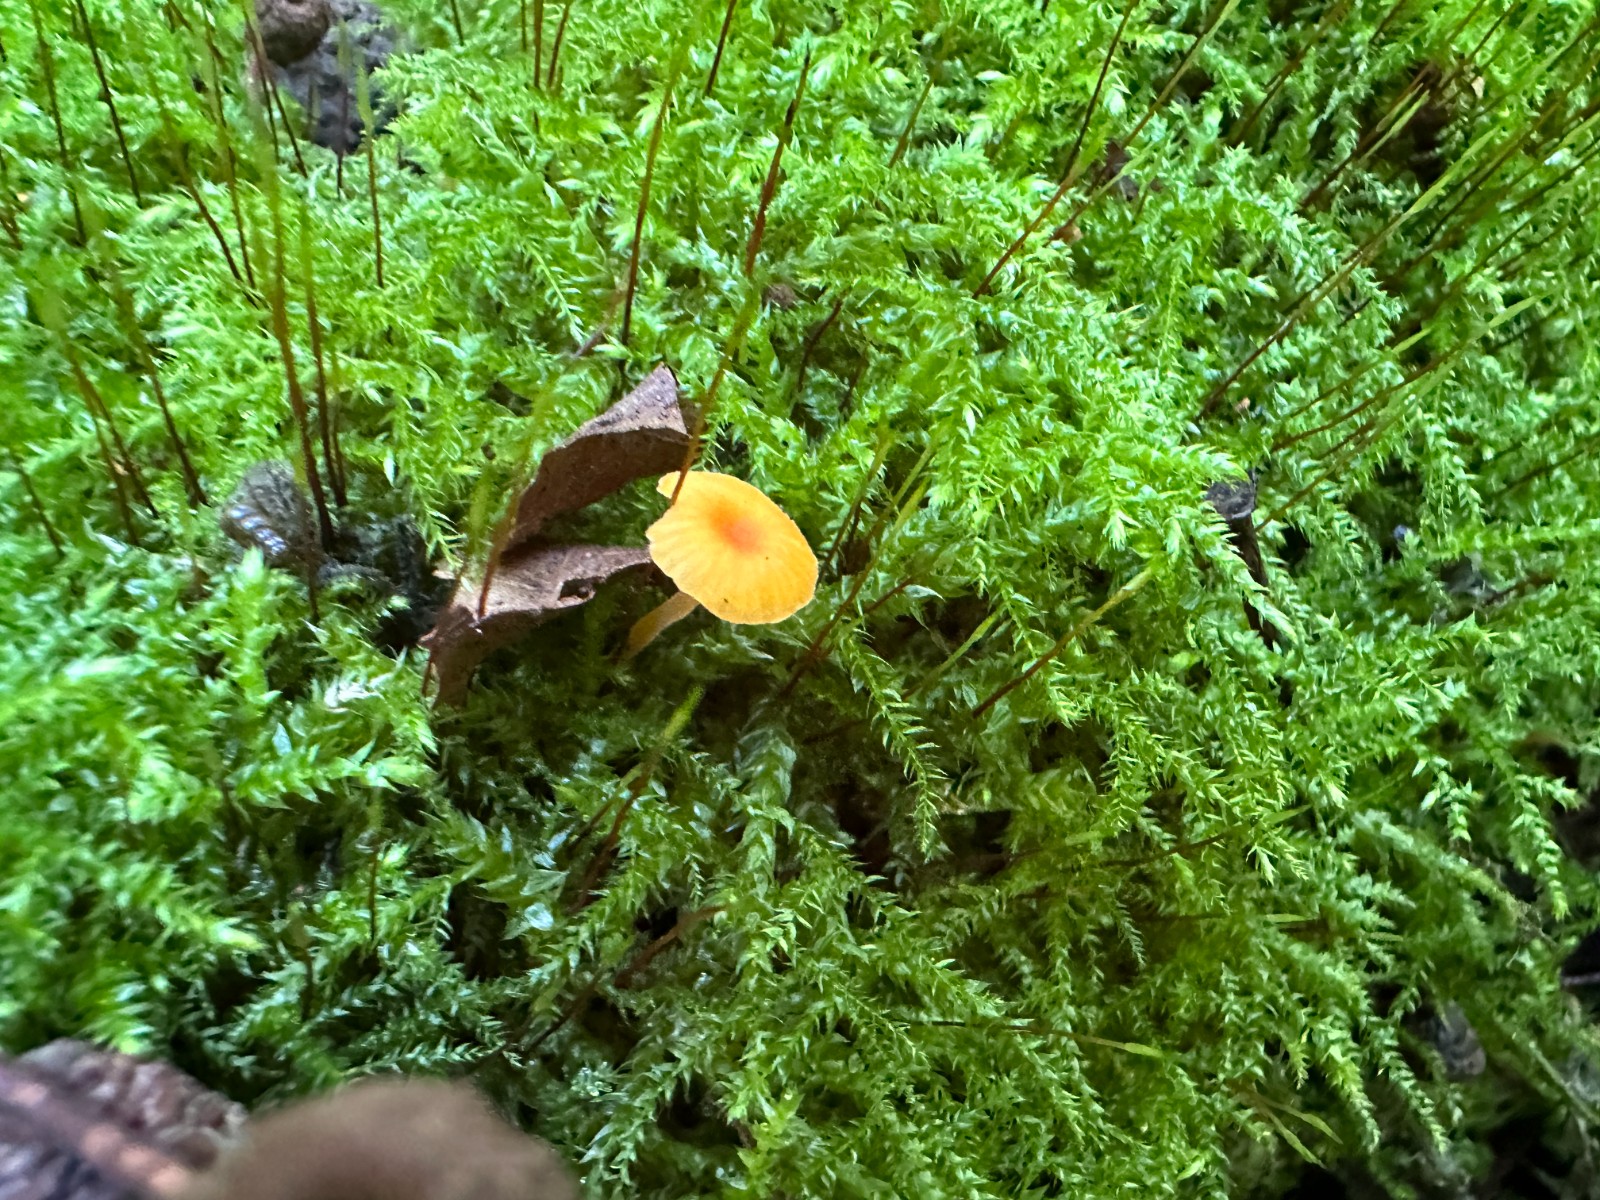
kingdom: Fungi
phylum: Basidiomycota
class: Agaricomycetes
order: Hymenochaetales
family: Rickenellaceae
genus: Rickenella
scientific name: Rickenella fibula
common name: orange mosnavlehat
